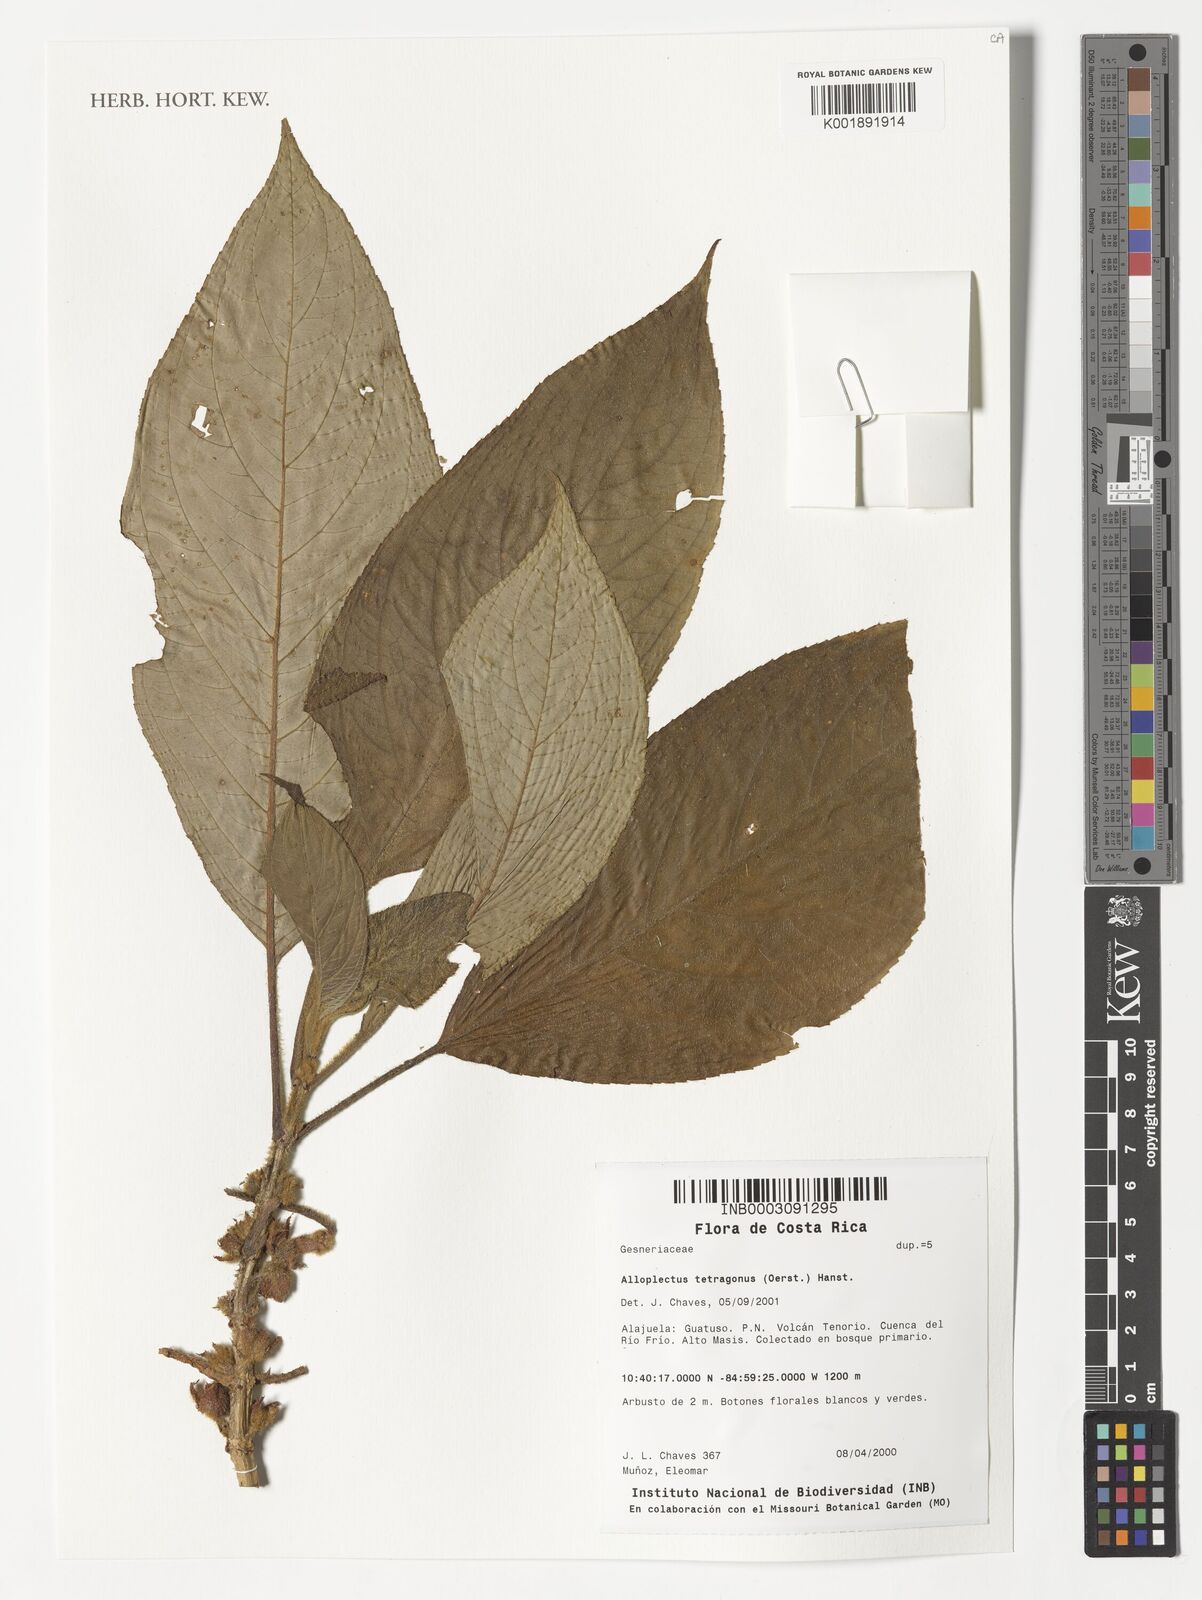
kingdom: Plantae
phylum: Tracheophyta
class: Magnoliopsida
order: Lamiales
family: Gesneriaceae
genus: Glossoloma
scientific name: Glossoloma tetragonum
